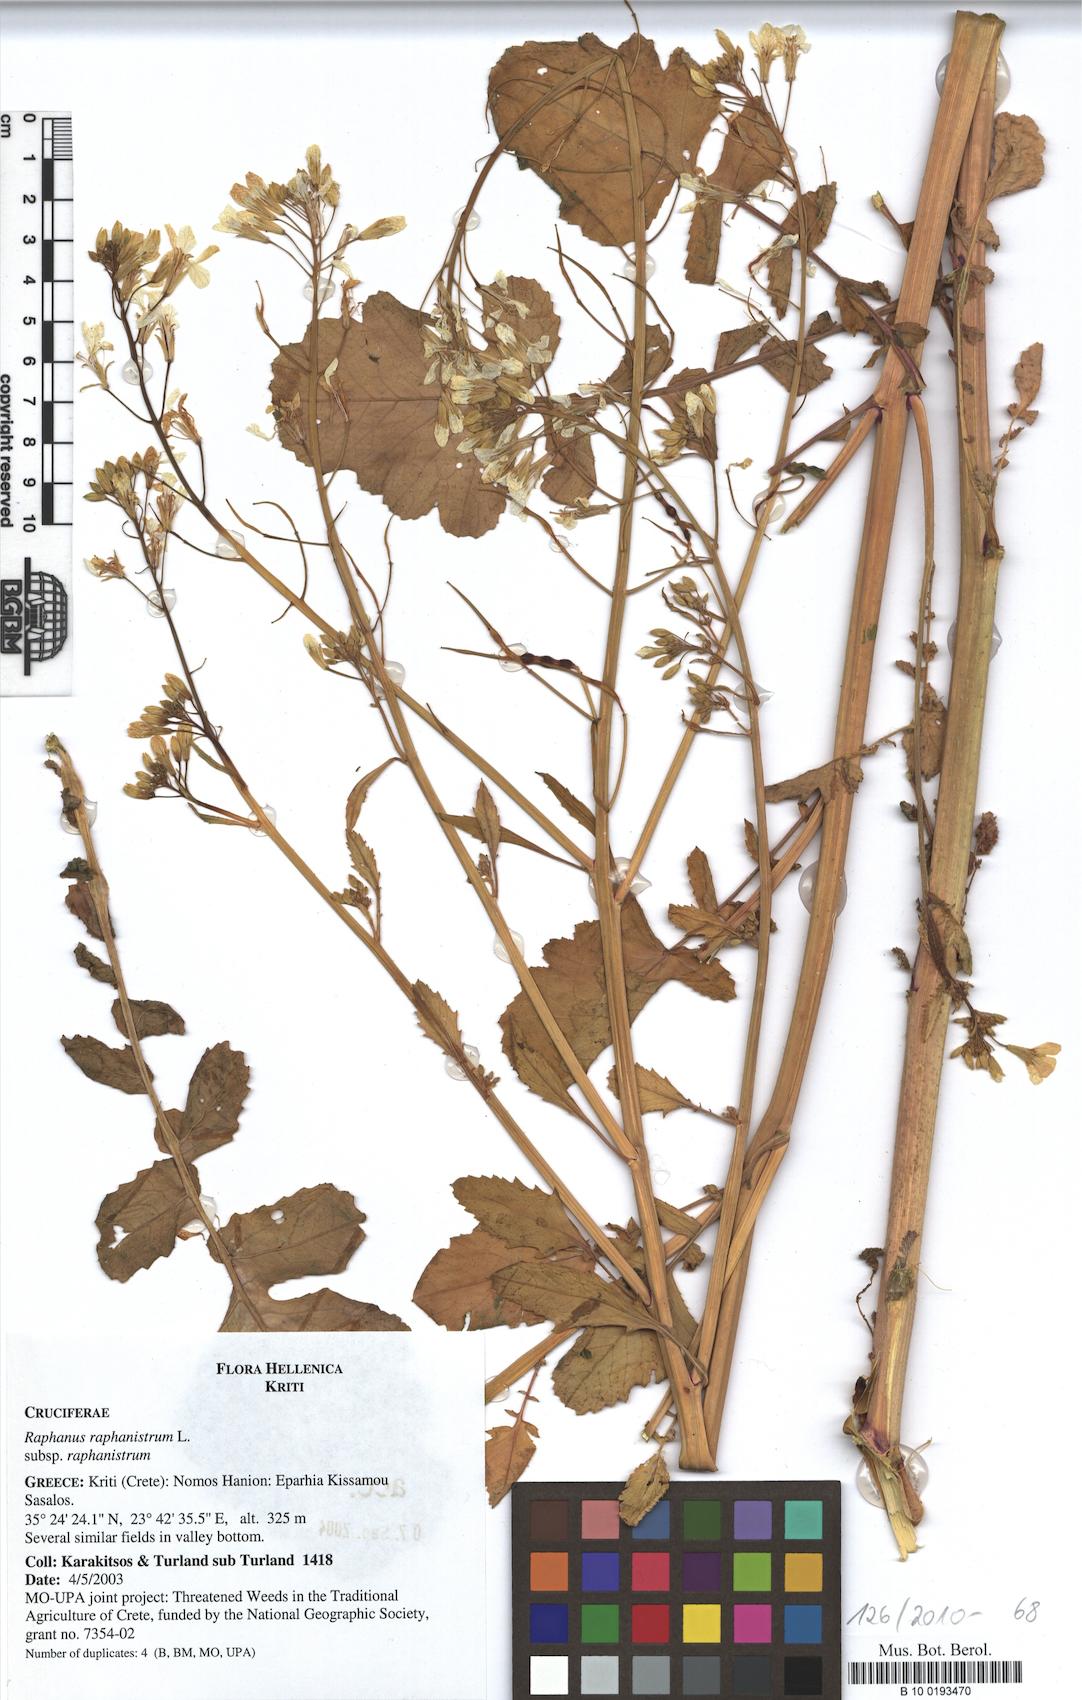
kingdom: Plantae
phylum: Tracheophyta
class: Magnoliopsida
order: Brassicales
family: Brassicaceae
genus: Raphanus
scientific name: Raphanus raphanistrum
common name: Wild radish
